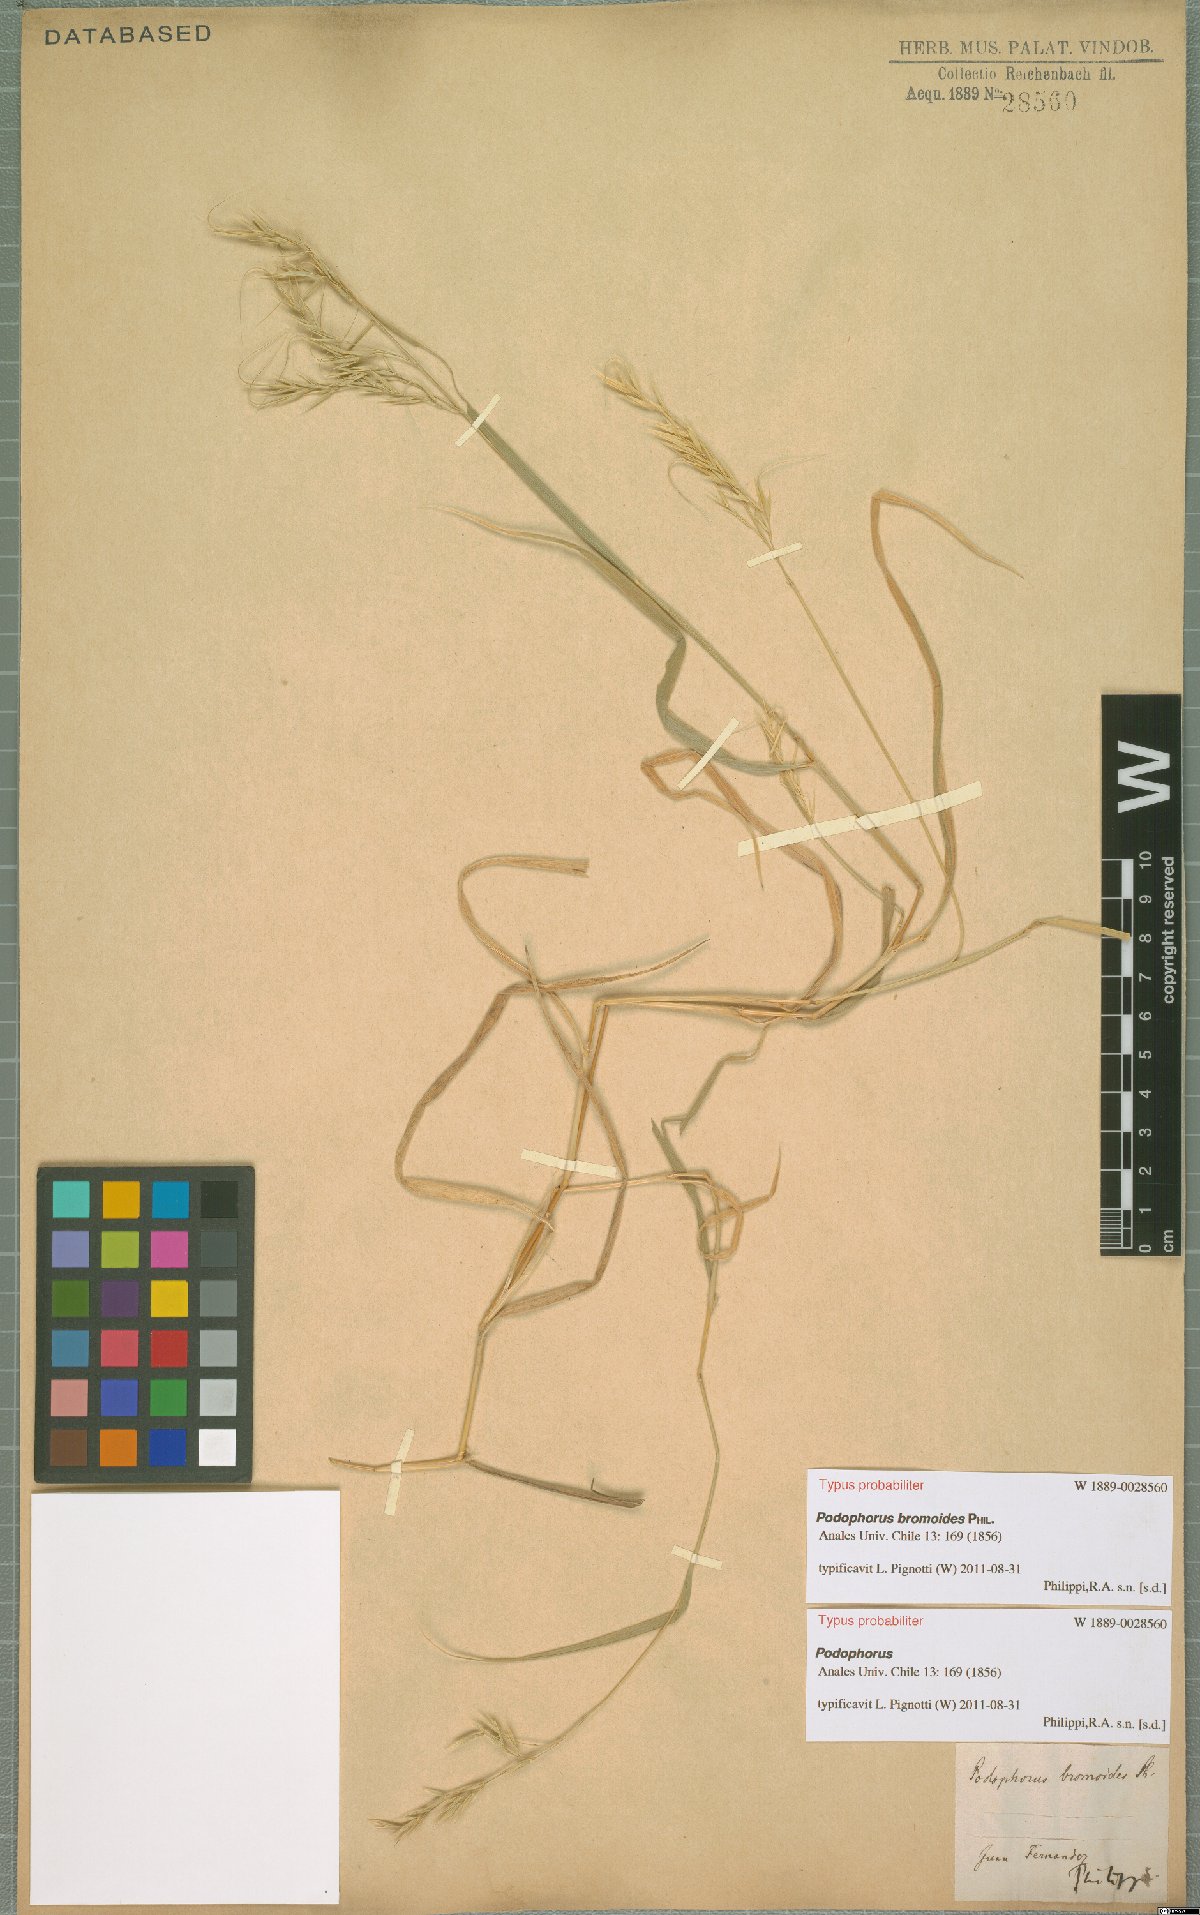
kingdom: Plantae
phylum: Tracheophyta
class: Liliopsida
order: Poales
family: Poaceae
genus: Festuca
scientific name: Festuca masatierrae
